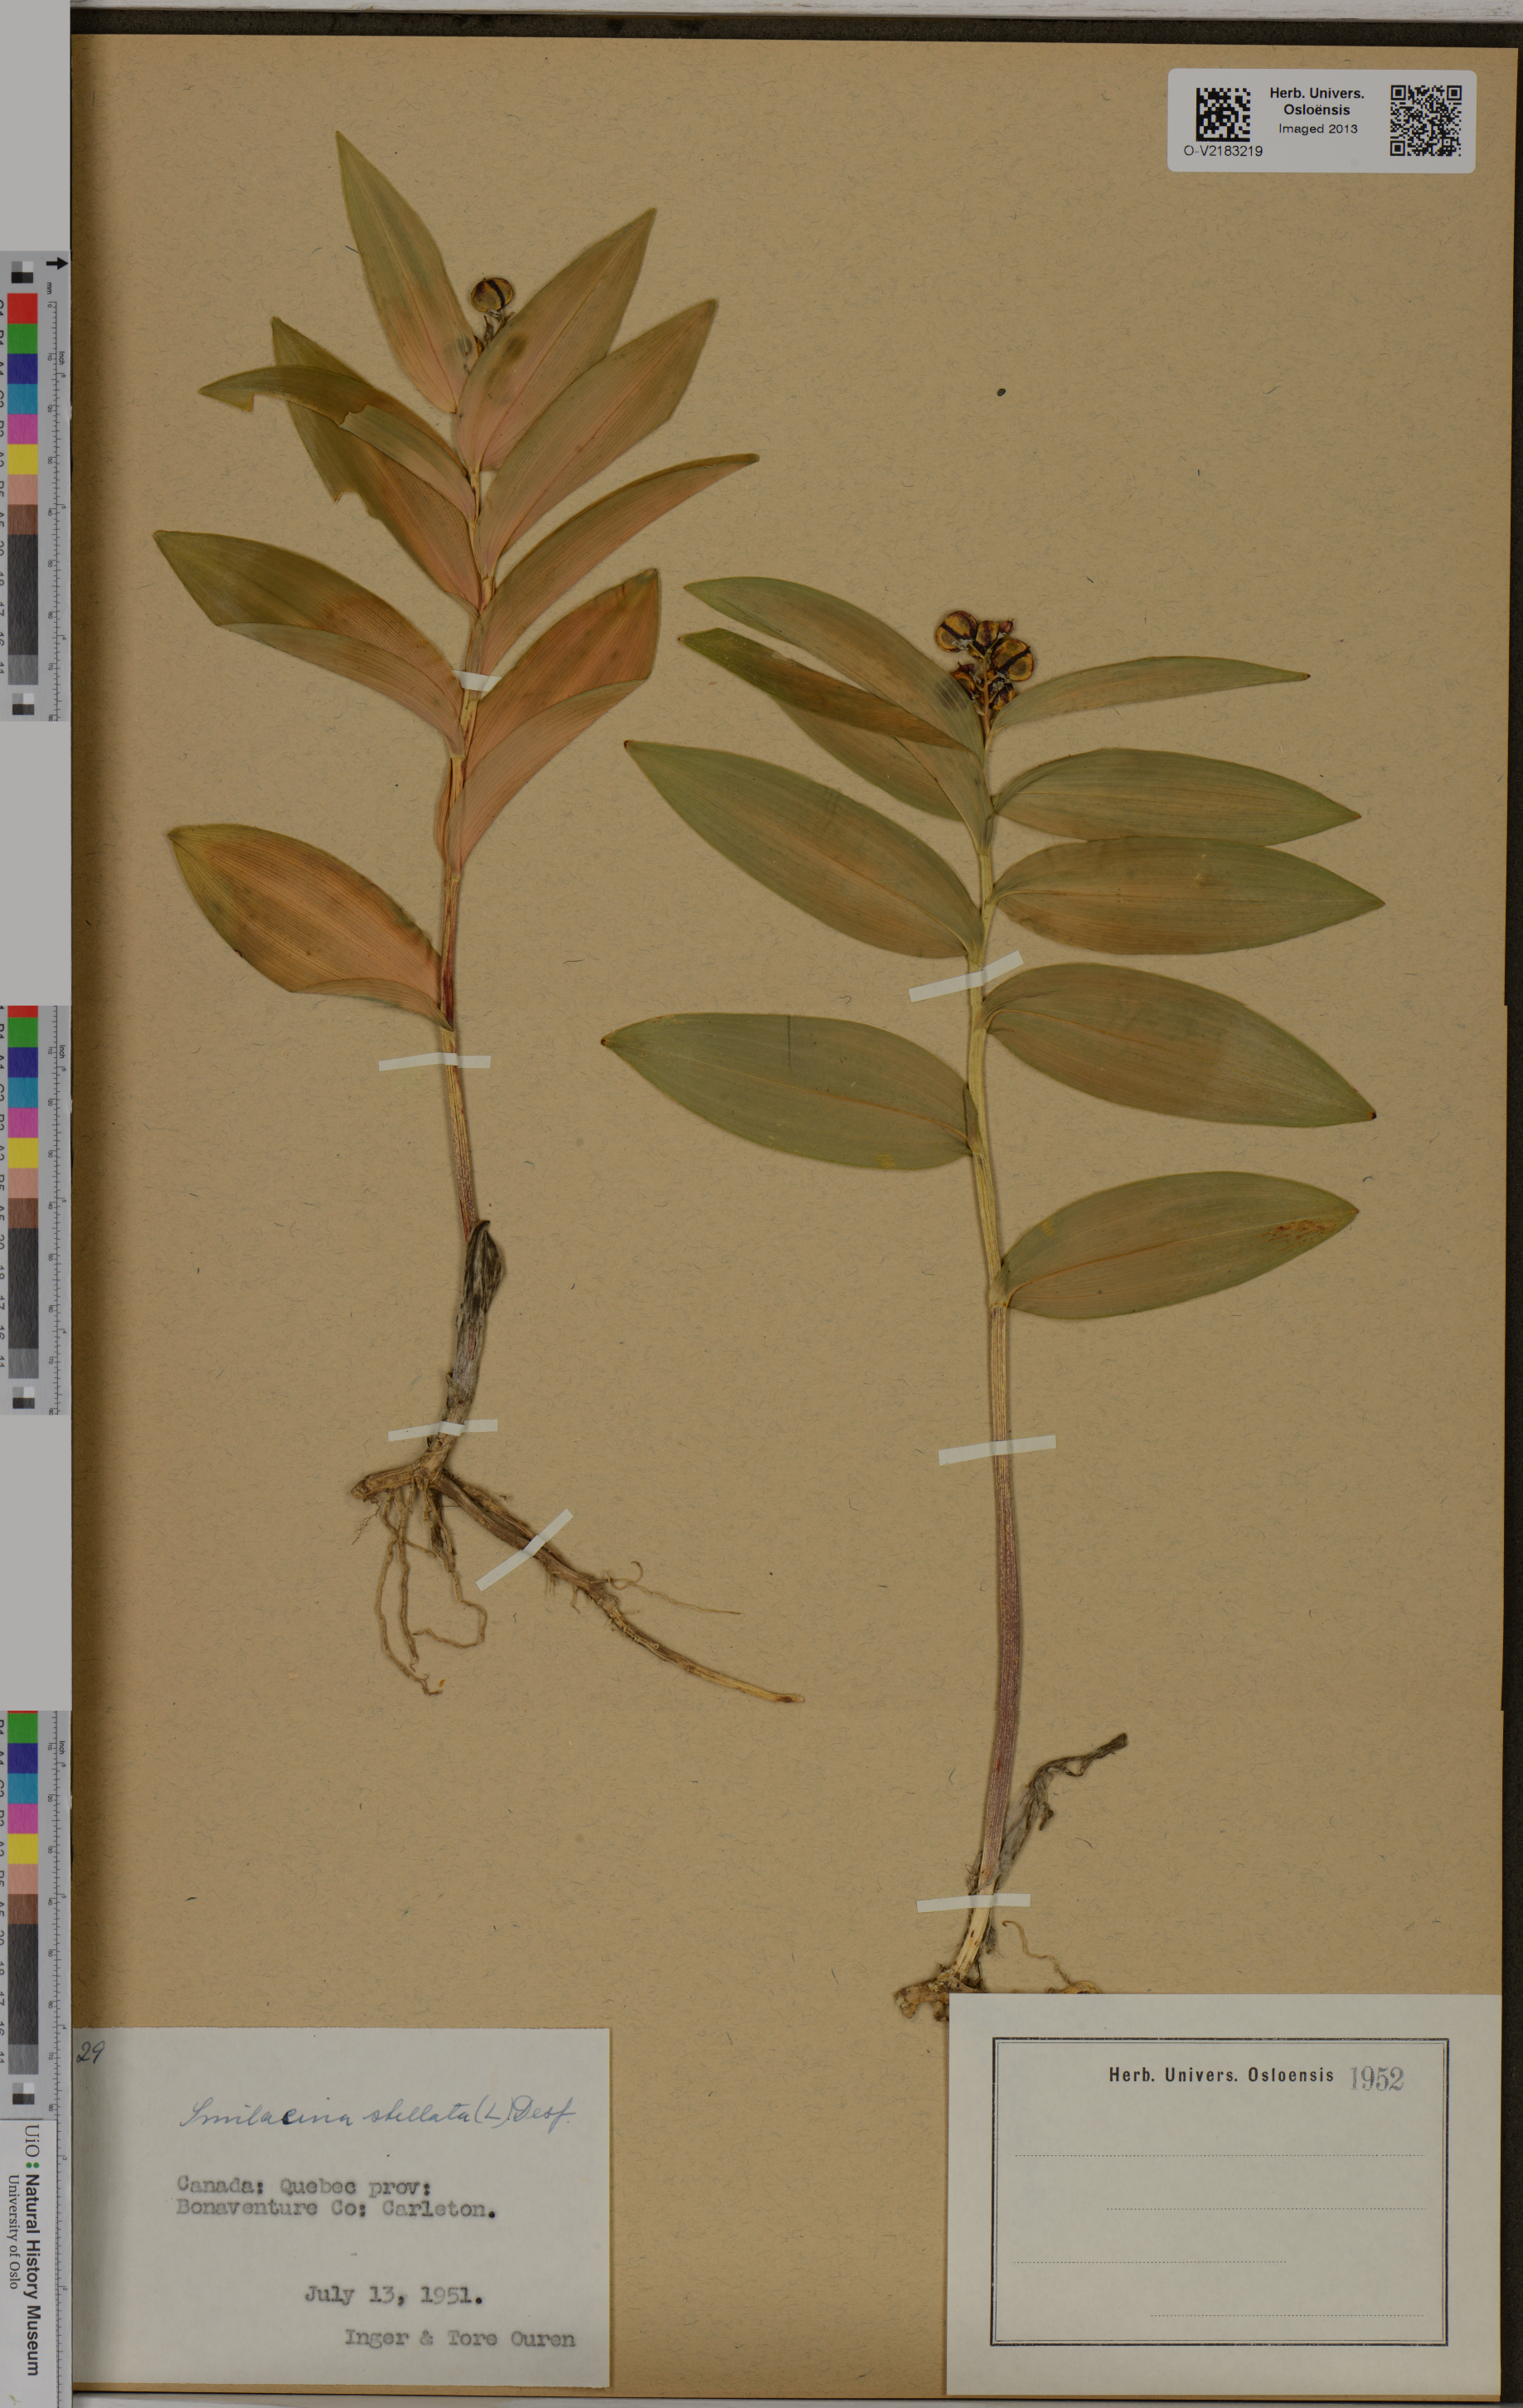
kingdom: Plantae
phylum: Tracheophyta
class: Liliopsida
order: Asparagales
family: Asparagaceae
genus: Maianthemum
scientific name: Maianthemum stellatum
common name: Little false solomon's seal
